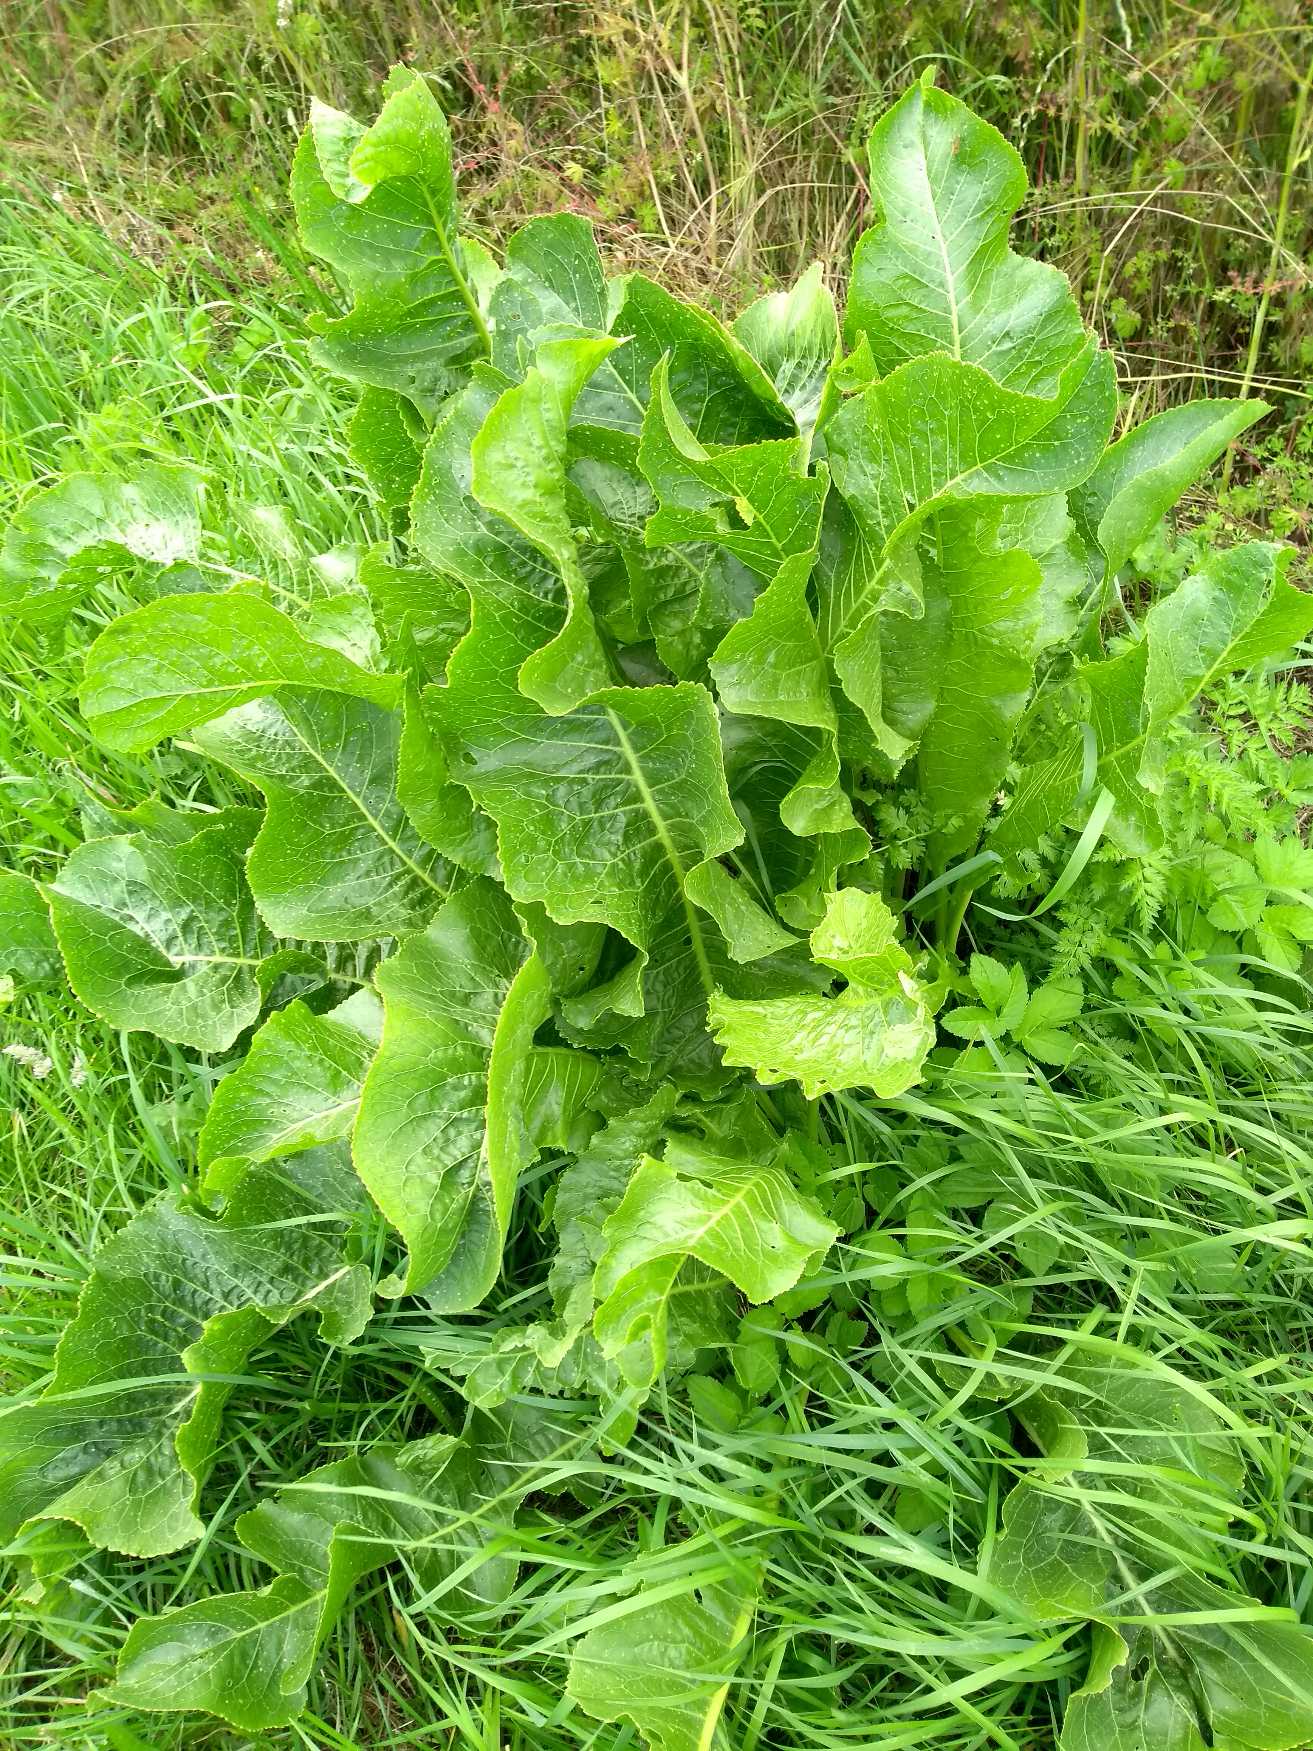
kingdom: Plantae
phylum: Tracheophyta
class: Magnoliopsida
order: Brassicales
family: Brassicaceae
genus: Armoracia
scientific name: Armoracia rusticana
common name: Peberrod
